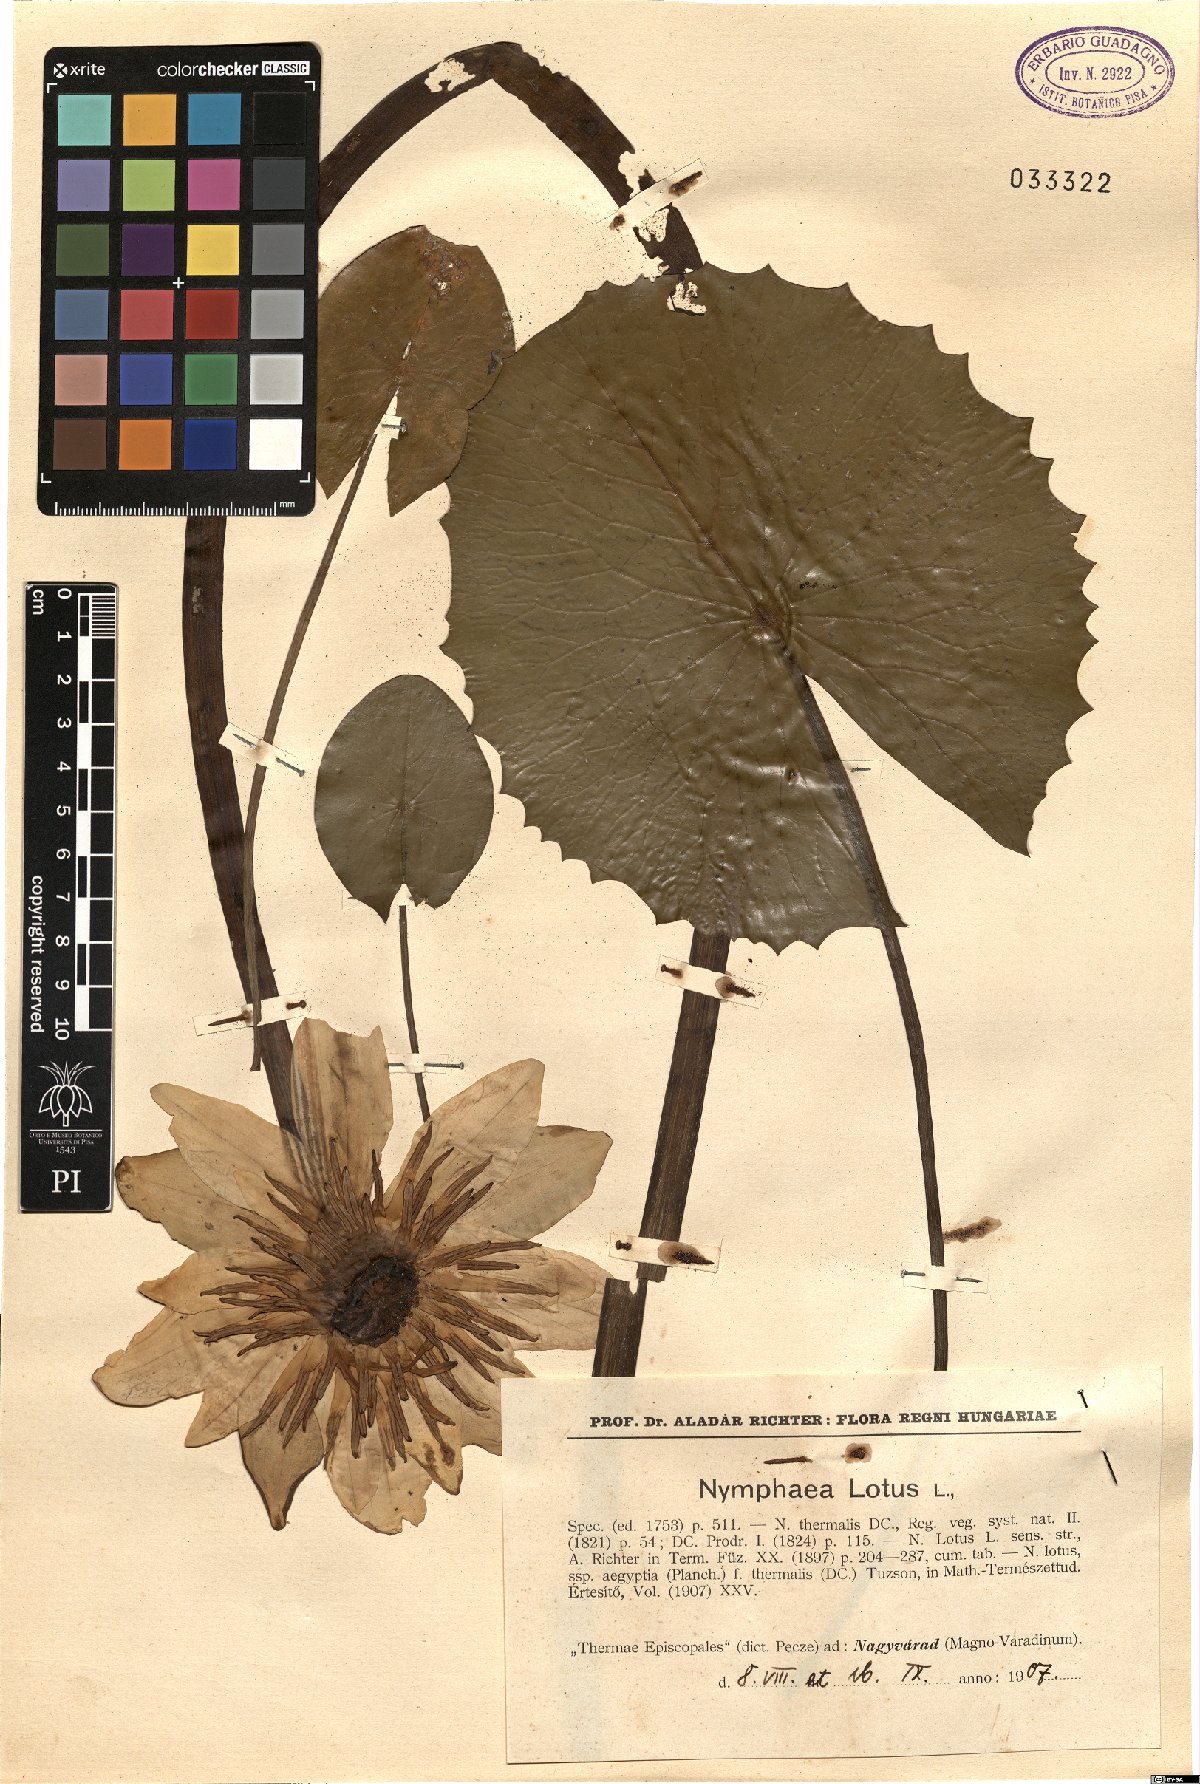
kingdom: Plantae
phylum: Tracheophyta
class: Magnoliopsida
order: Nymphaeales
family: Nymphaeaceae
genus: Nymphaea
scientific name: Nymphaea lotus
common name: White egyptian lotus
